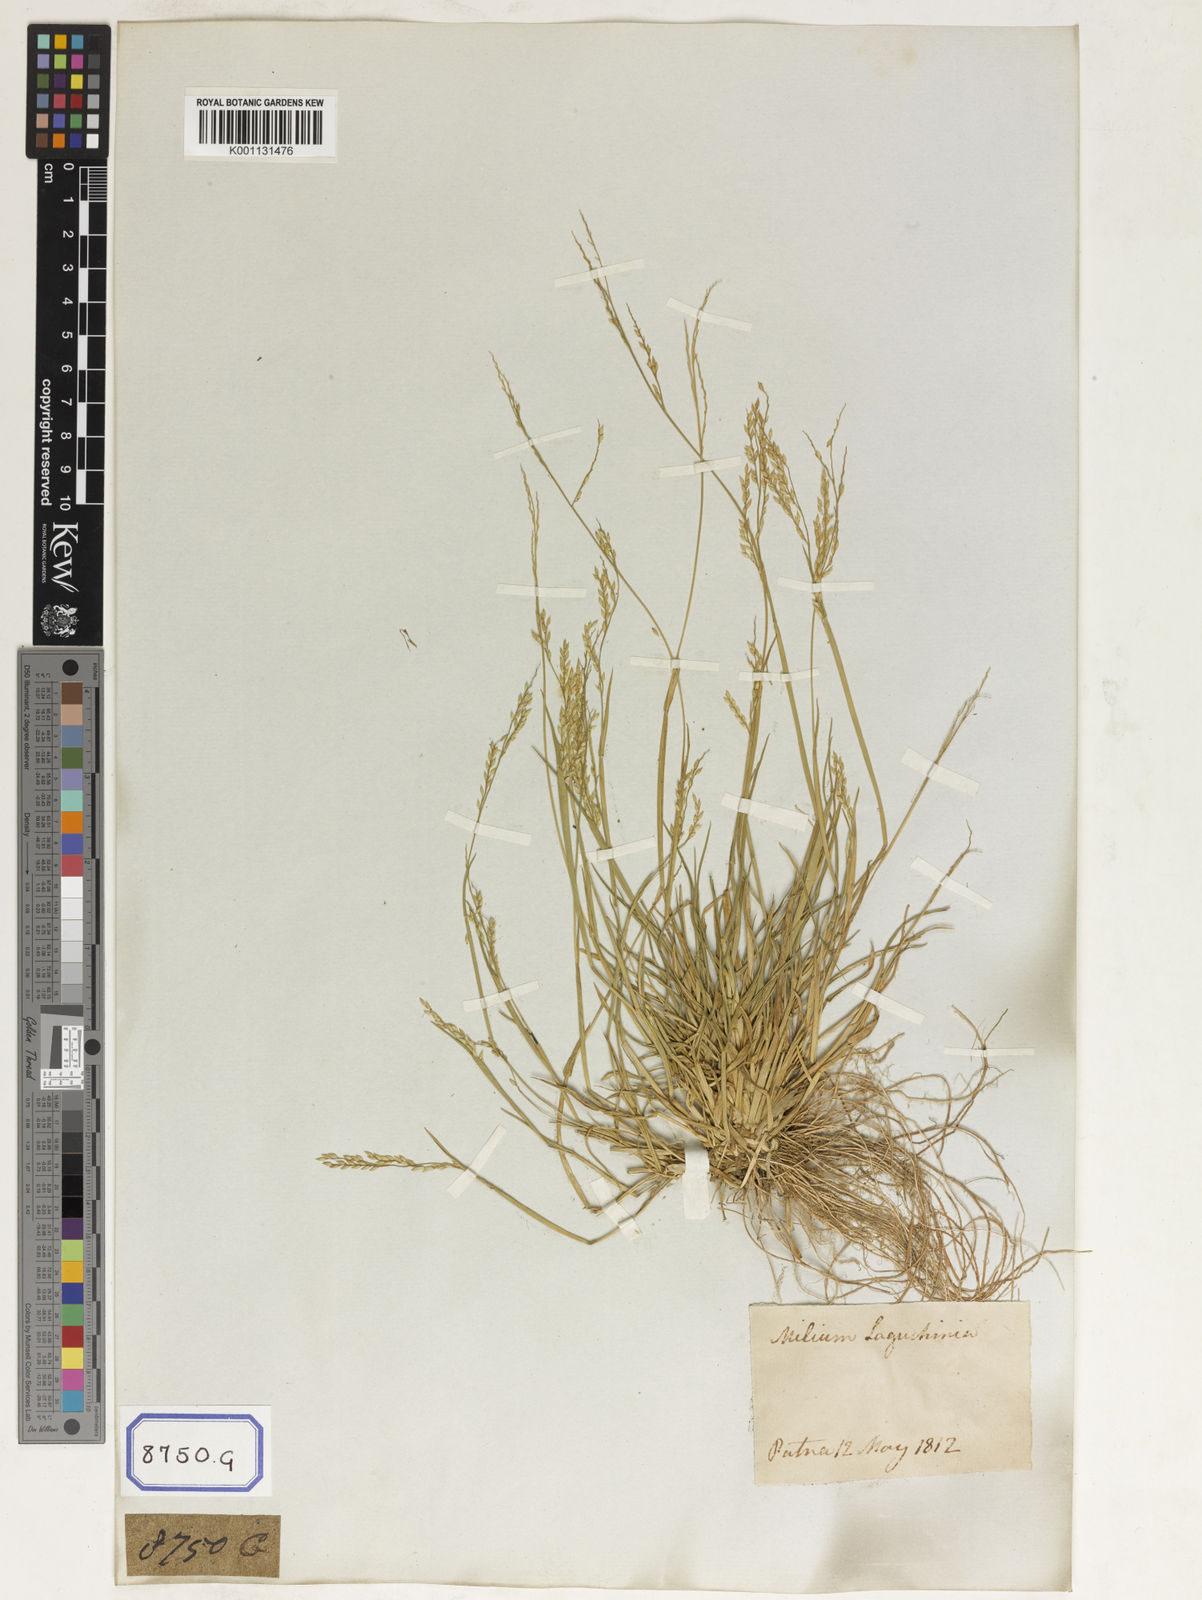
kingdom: Plantae
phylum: Tracheophyta
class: Liliopsida
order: Poales
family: Poaceae
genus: Eriochloa
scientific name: Eriochloa procera
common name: Spring grass
